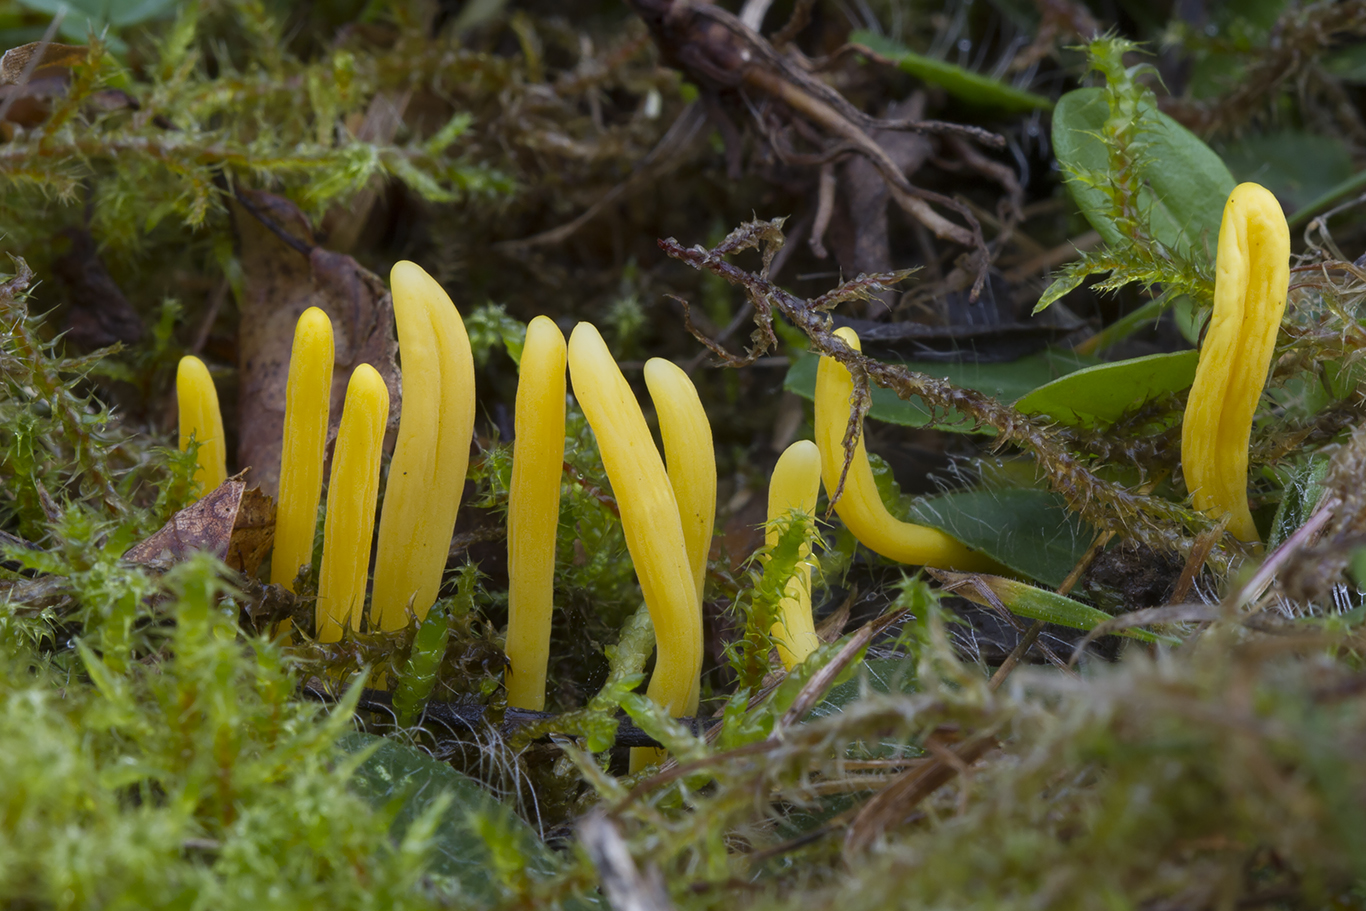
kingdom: Fungi
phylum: Basidiomycota
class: Agaricomycetes
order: Agaricales
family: Clavariaceae
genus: Clavulinopsis
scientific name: Clavulinopsis helvola
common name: orangegul køllesvamp
